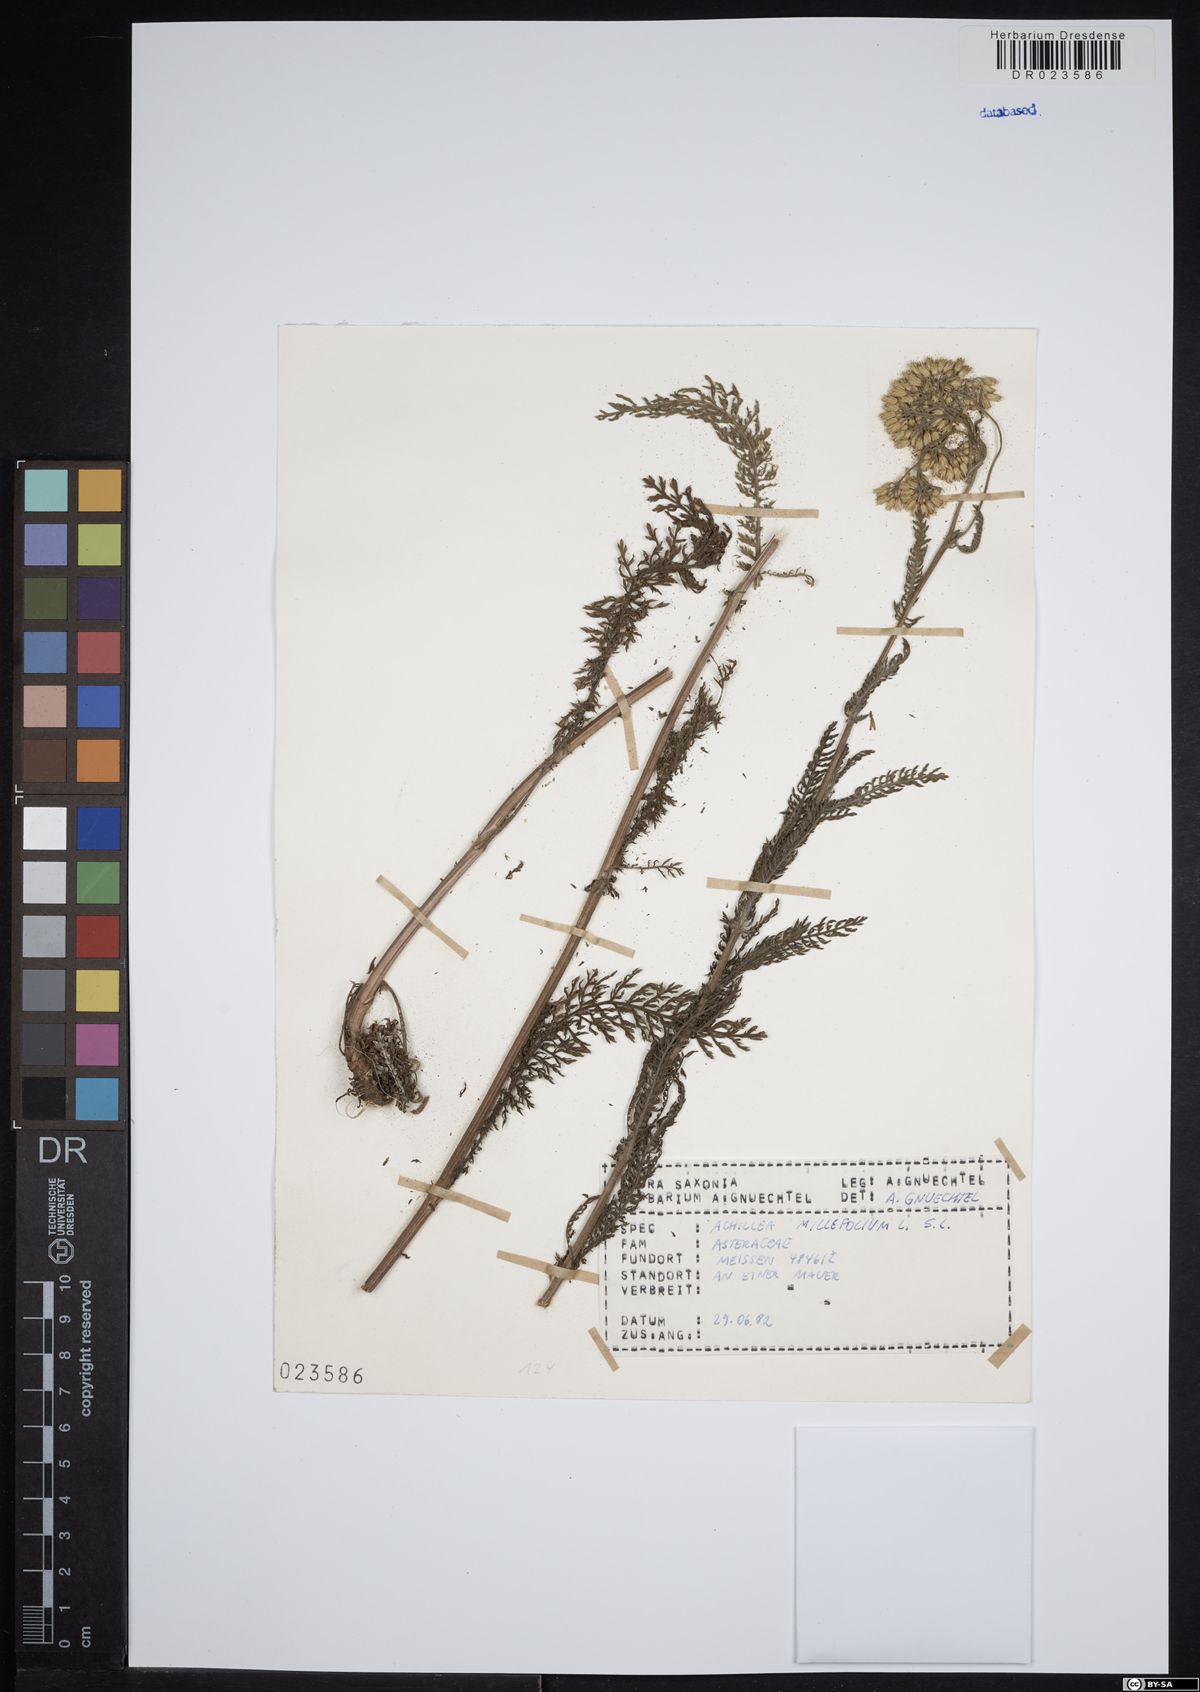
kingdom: Plantae
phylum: Tracheophyta
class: Magnoliopsida
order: Asterales
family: Asteraceae
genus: Achillea
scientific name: Achillea millefolium
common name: Yarrow
